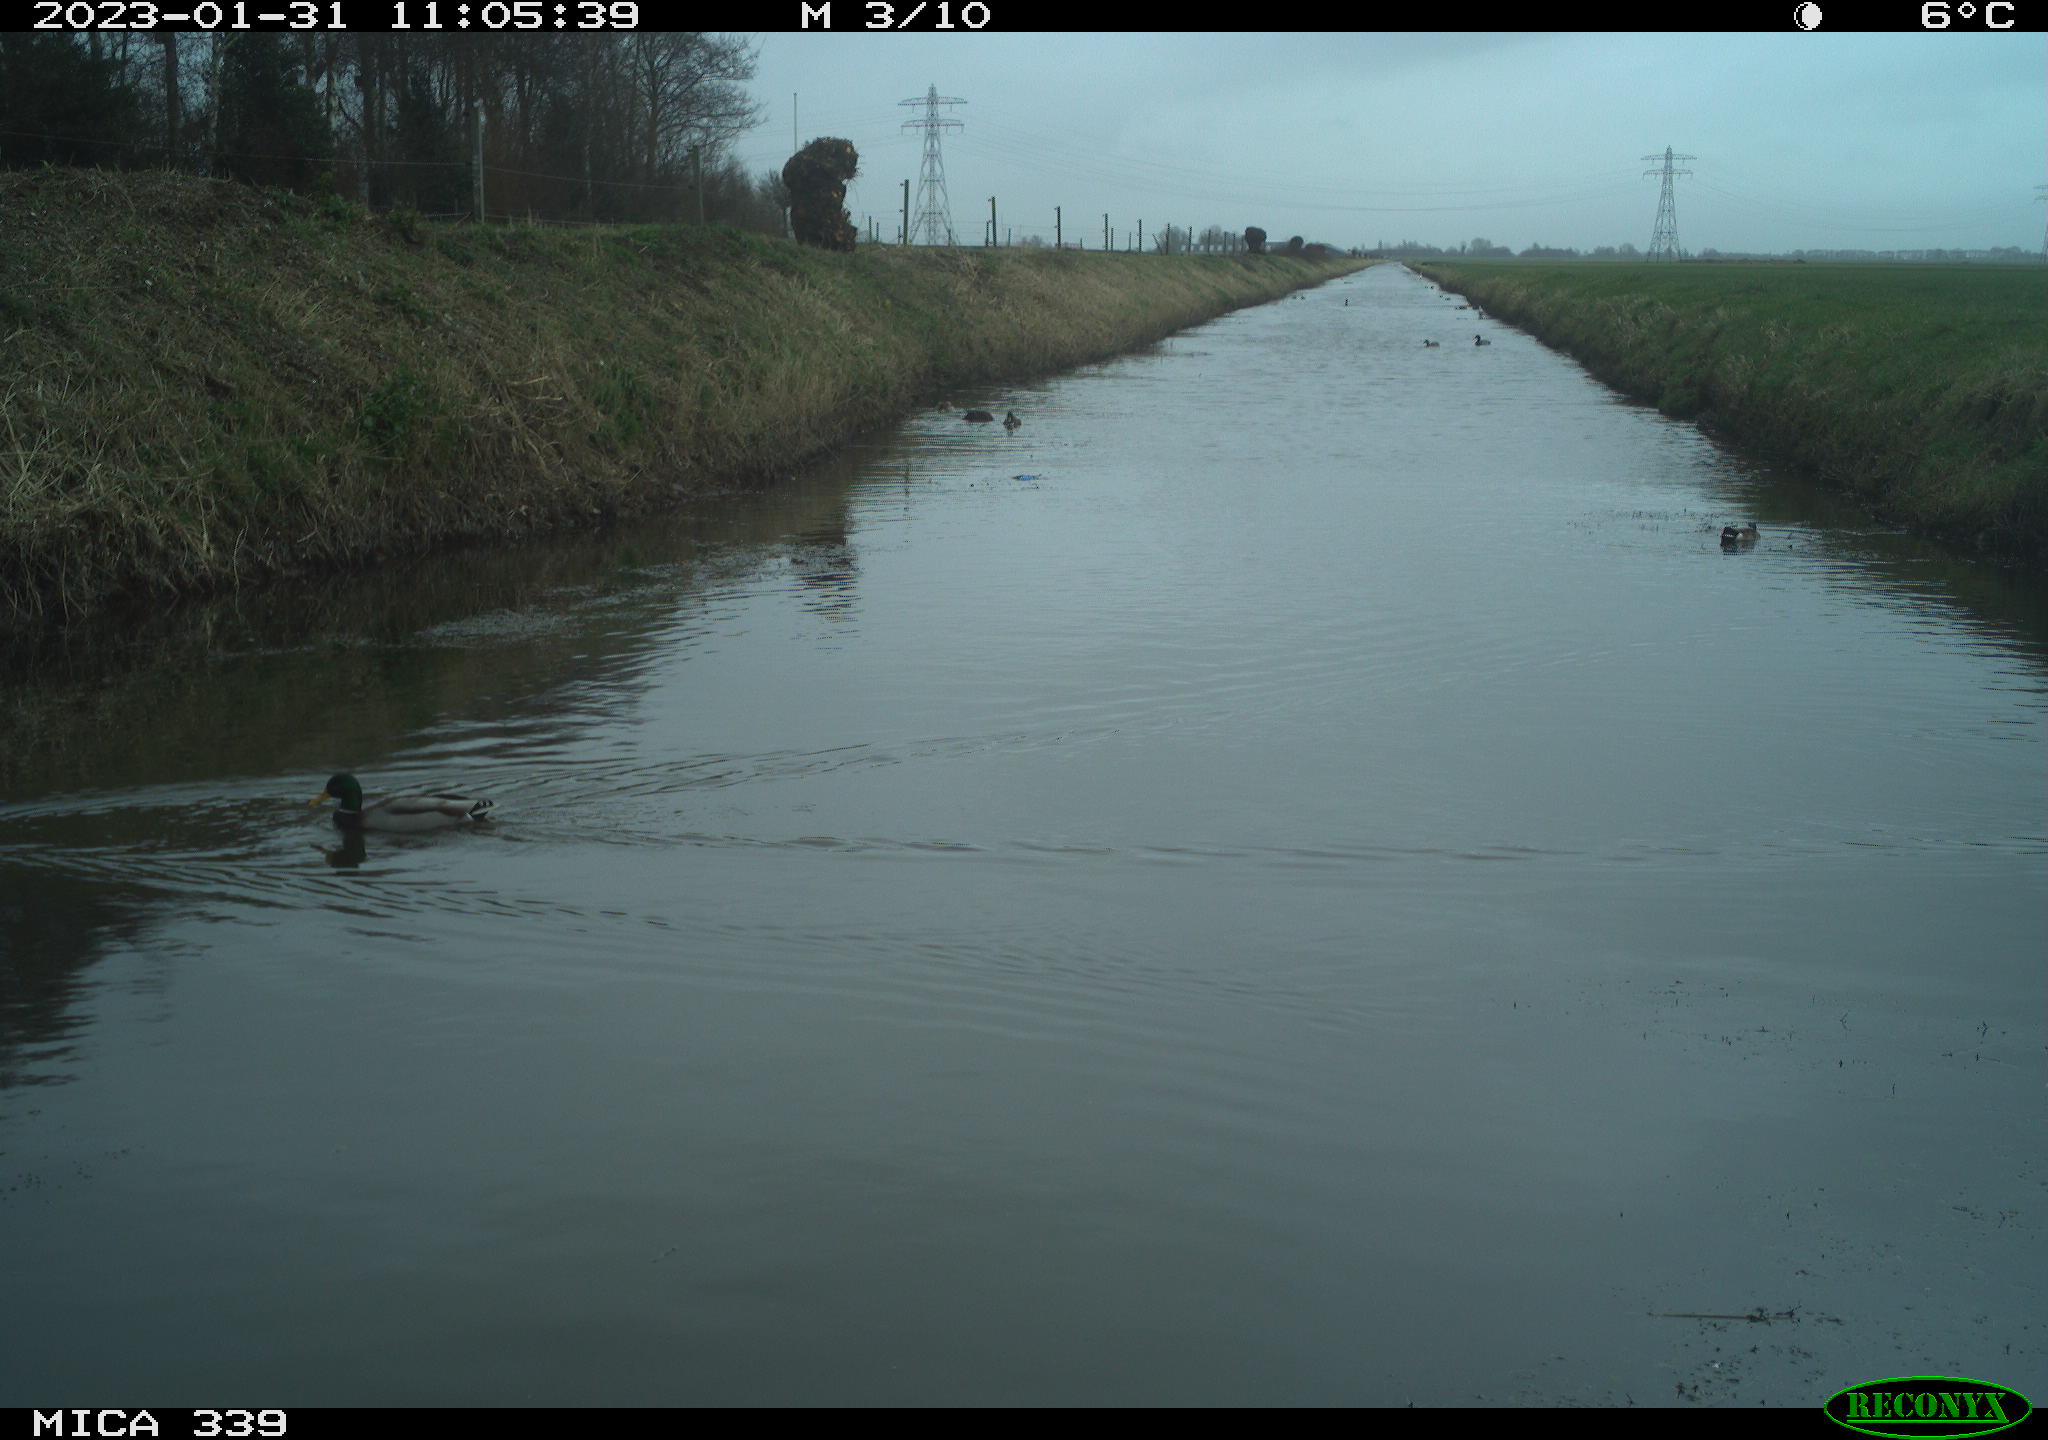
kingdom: Animalia
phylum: Chordata
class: Aves
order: Anseriformes
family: Anatidae
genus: Anas
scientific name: Anas
